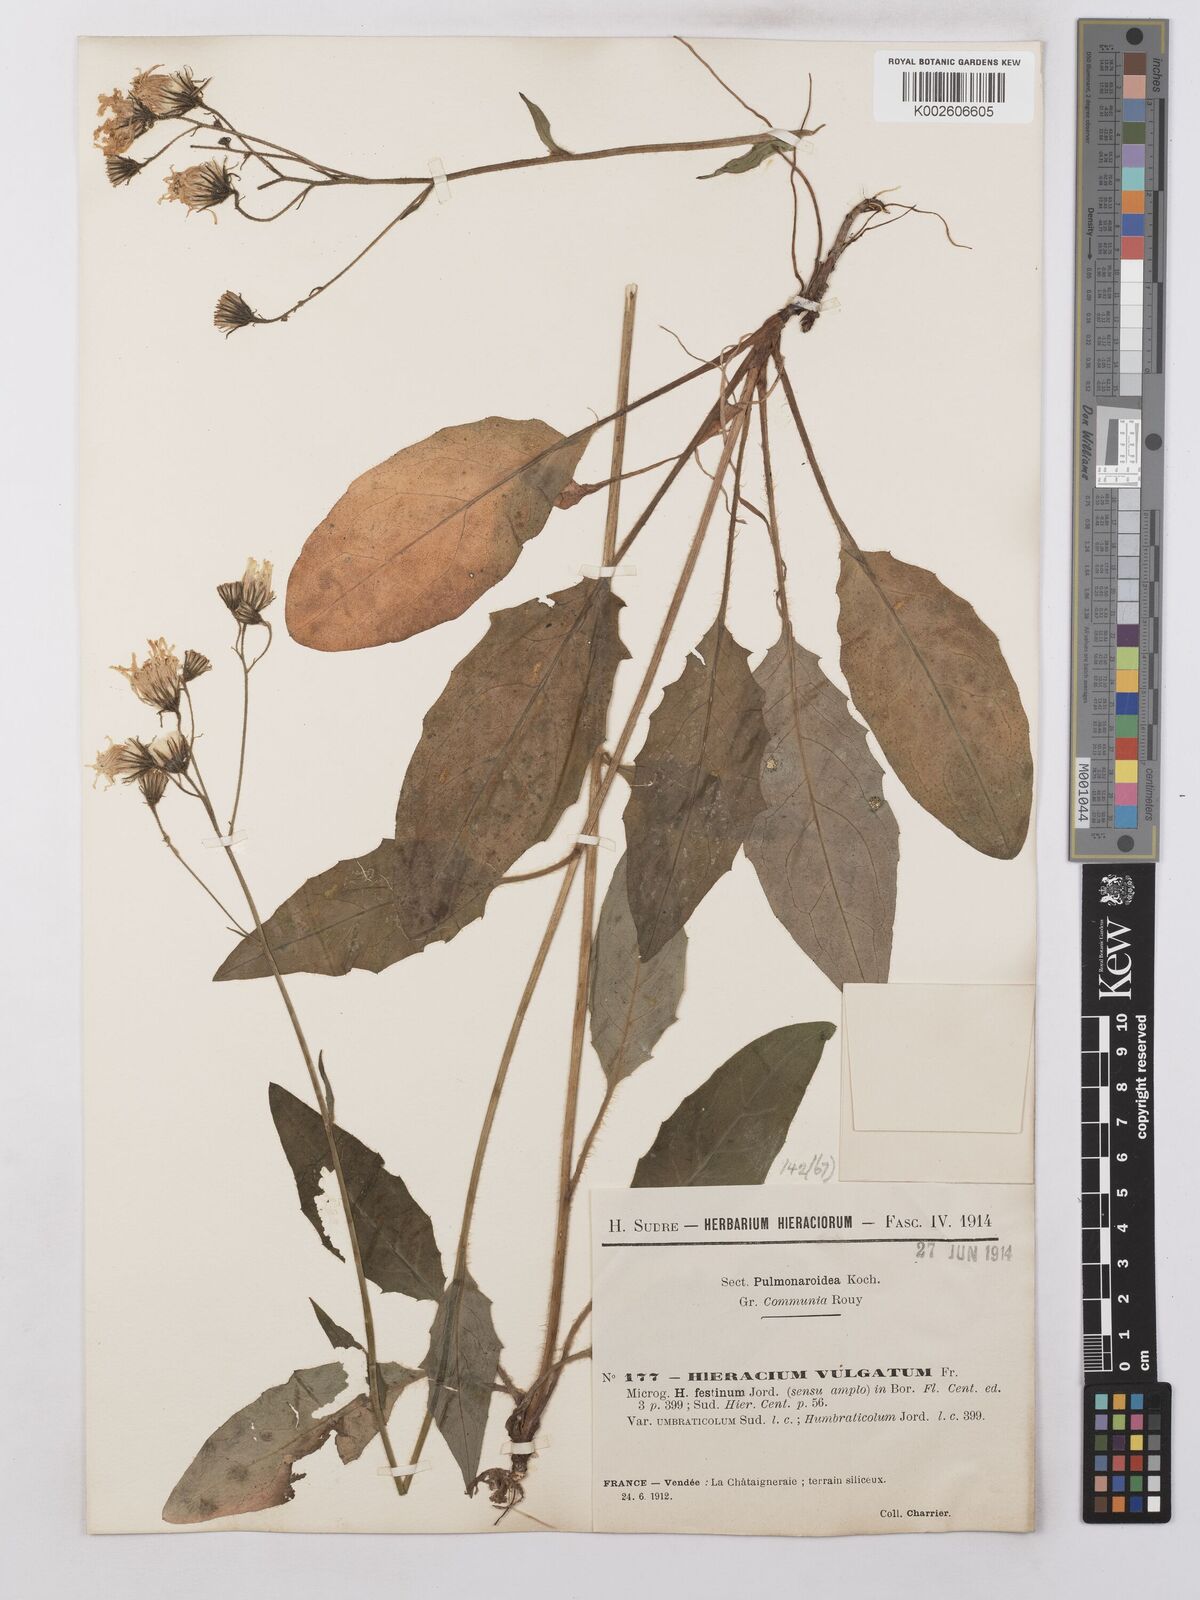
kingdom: Plantae
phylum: Tracheophyta
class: Magnoliopsida
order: Asterales
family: Asteraceae
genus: Hieracium
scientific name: Hieracium lachenalii
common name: Common hawkweed
